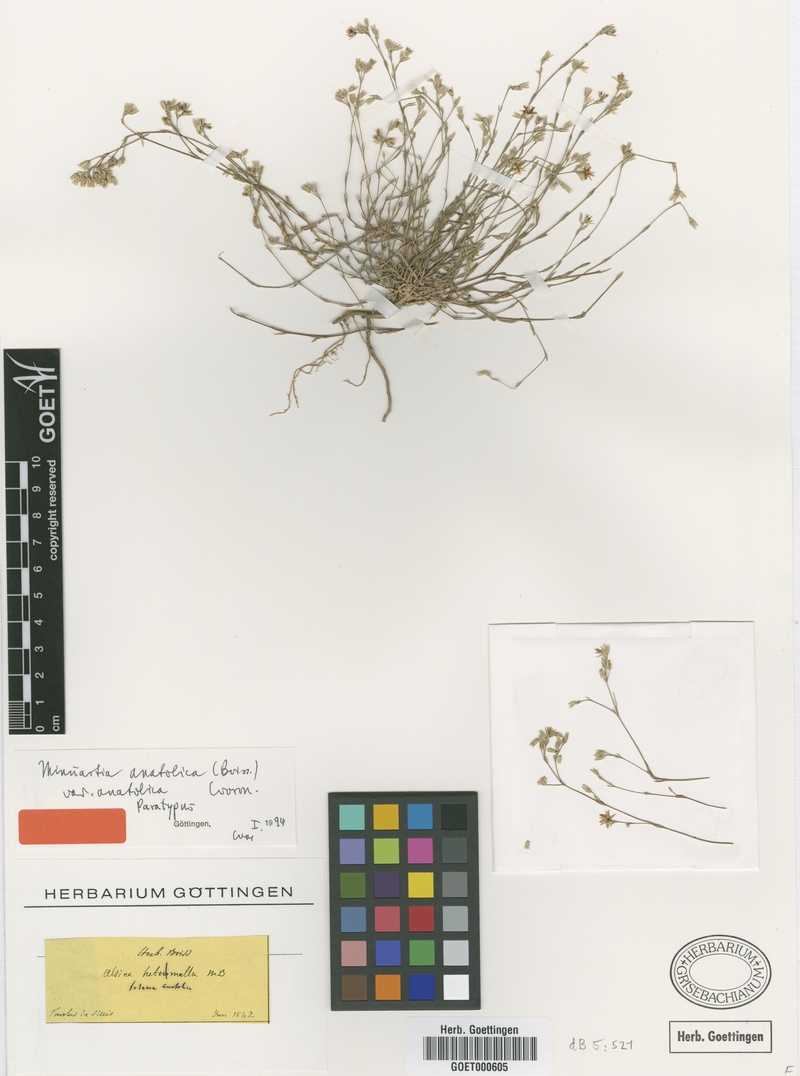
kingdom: Plantae
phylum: Tracheophyta
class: Magnoliopsida
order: Caryophyllales
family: Caryophyllaceae
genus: Minuartia
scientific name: Minuartia anatolica
